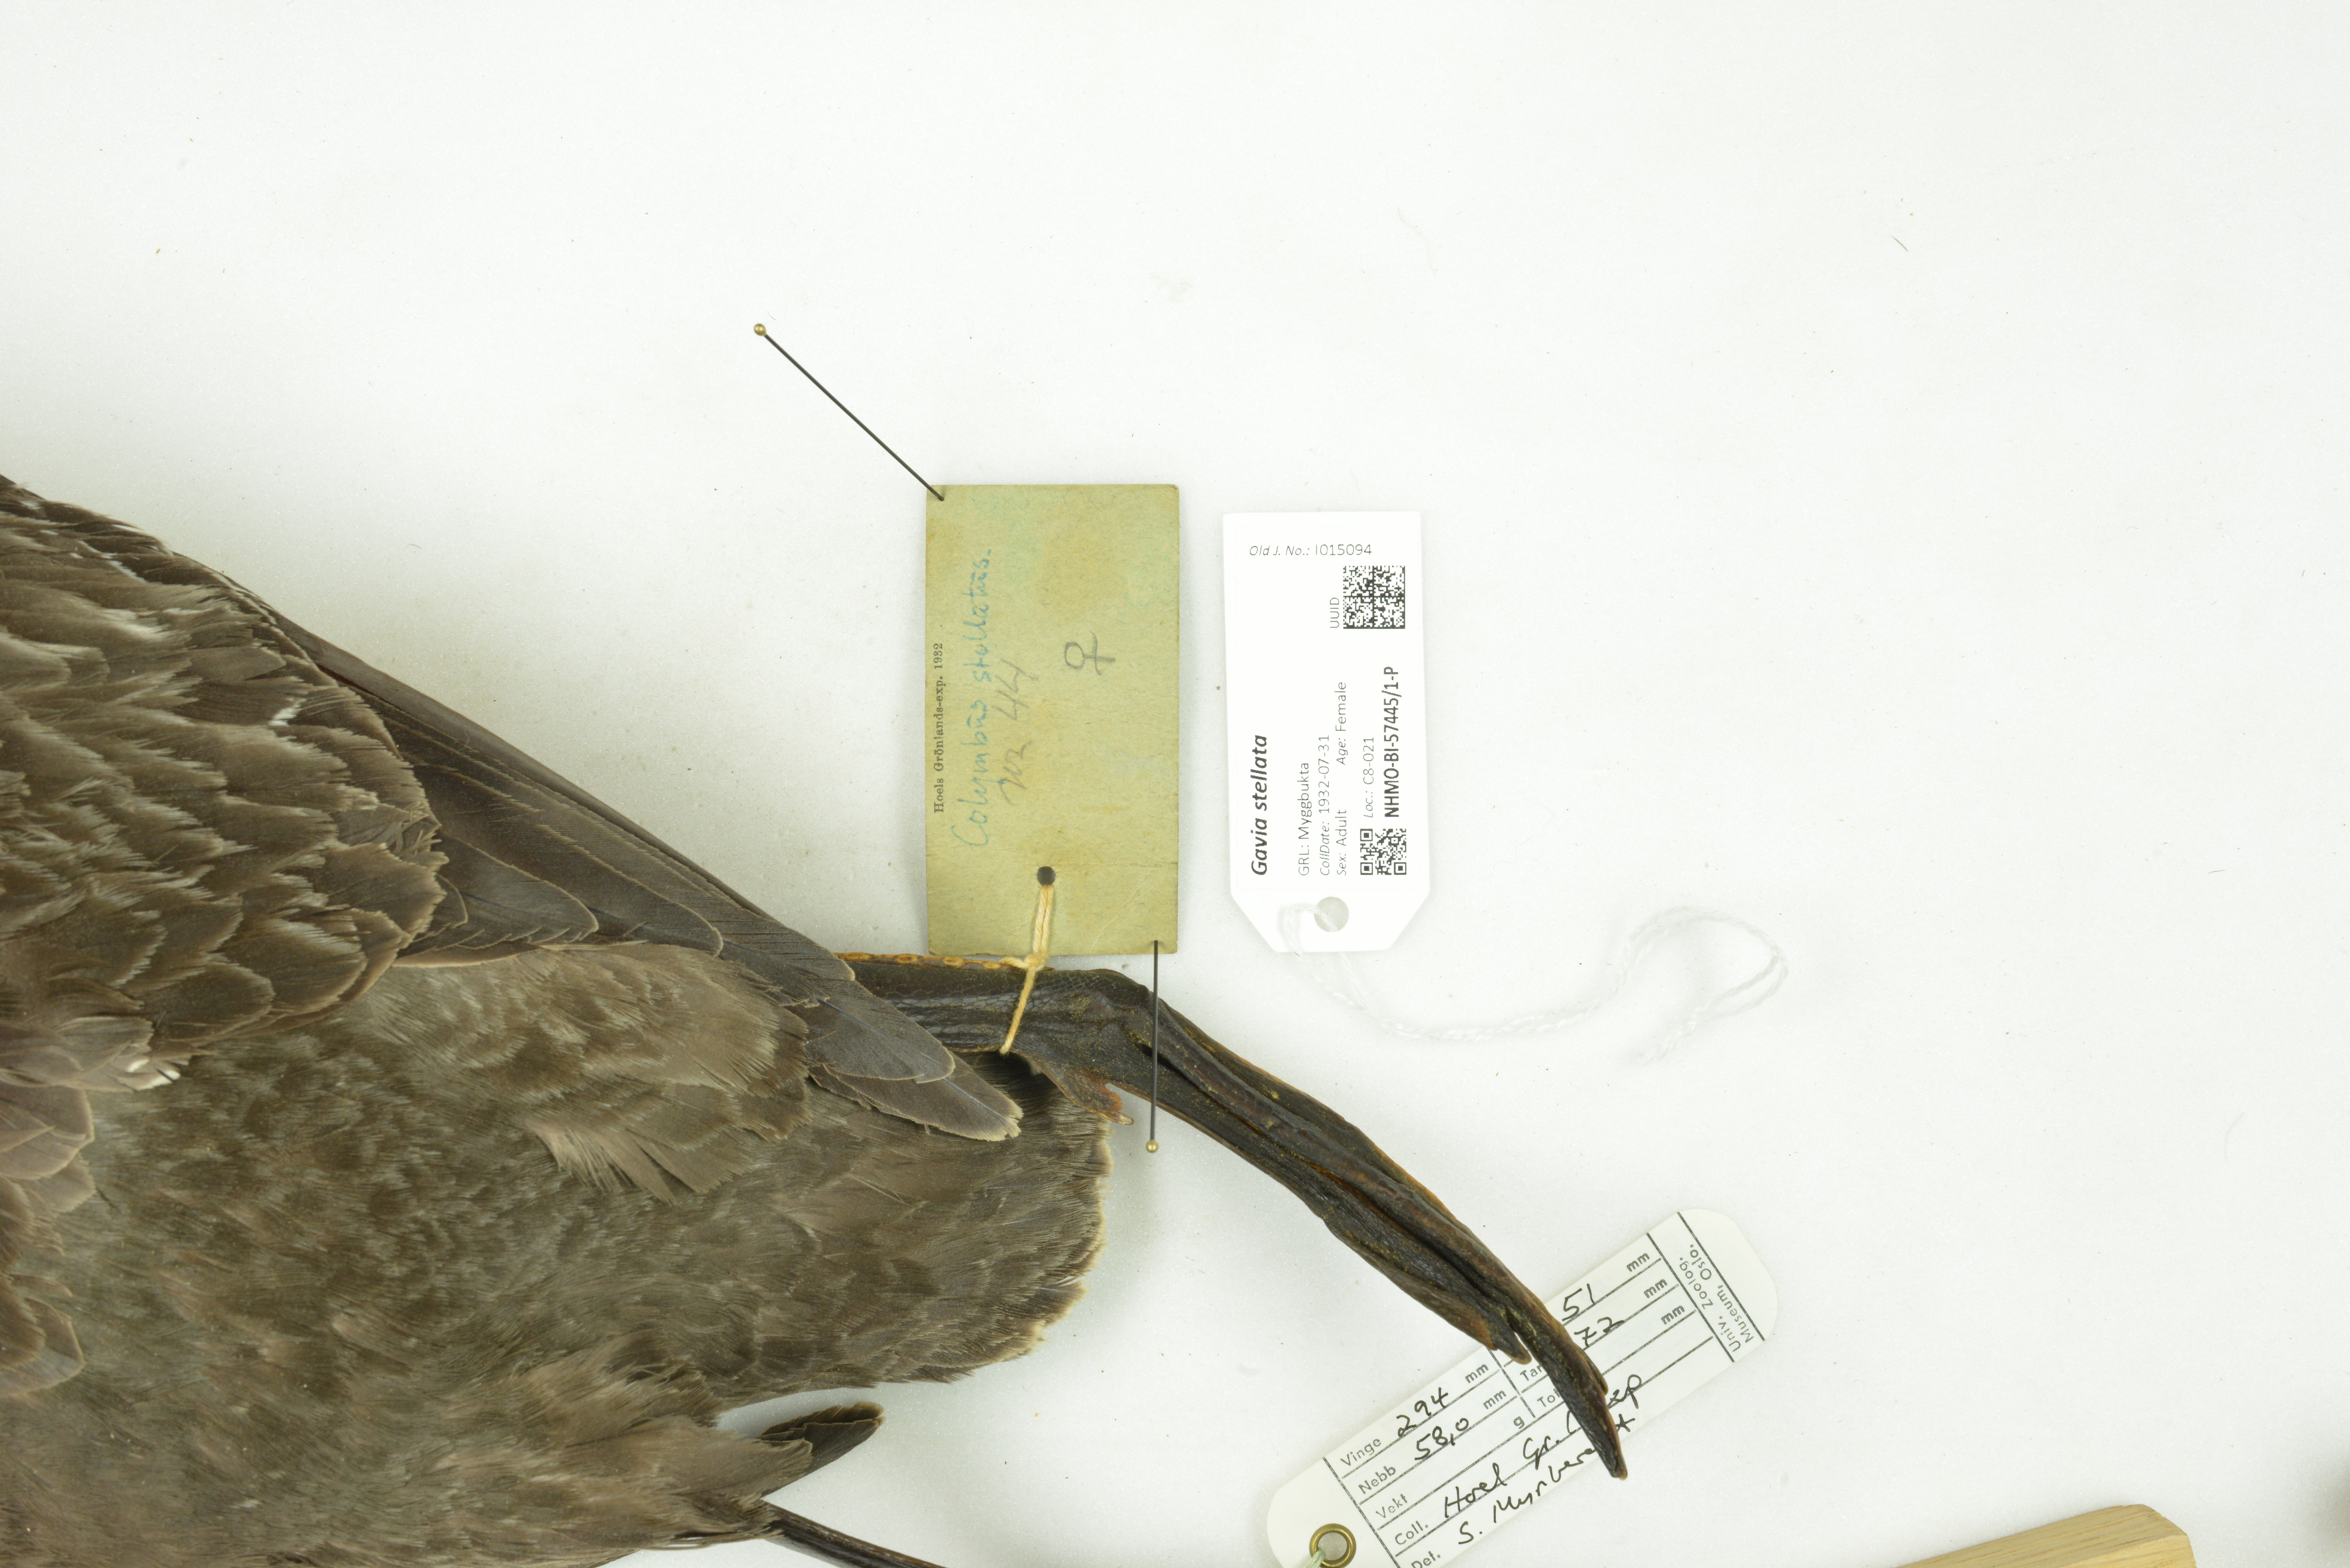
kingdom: Animalia
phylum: Chordata
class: Aves
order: Gaviiformes
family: Gaviidae
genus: Gavia
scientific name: Gavia stellata
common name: Red-throated loon
